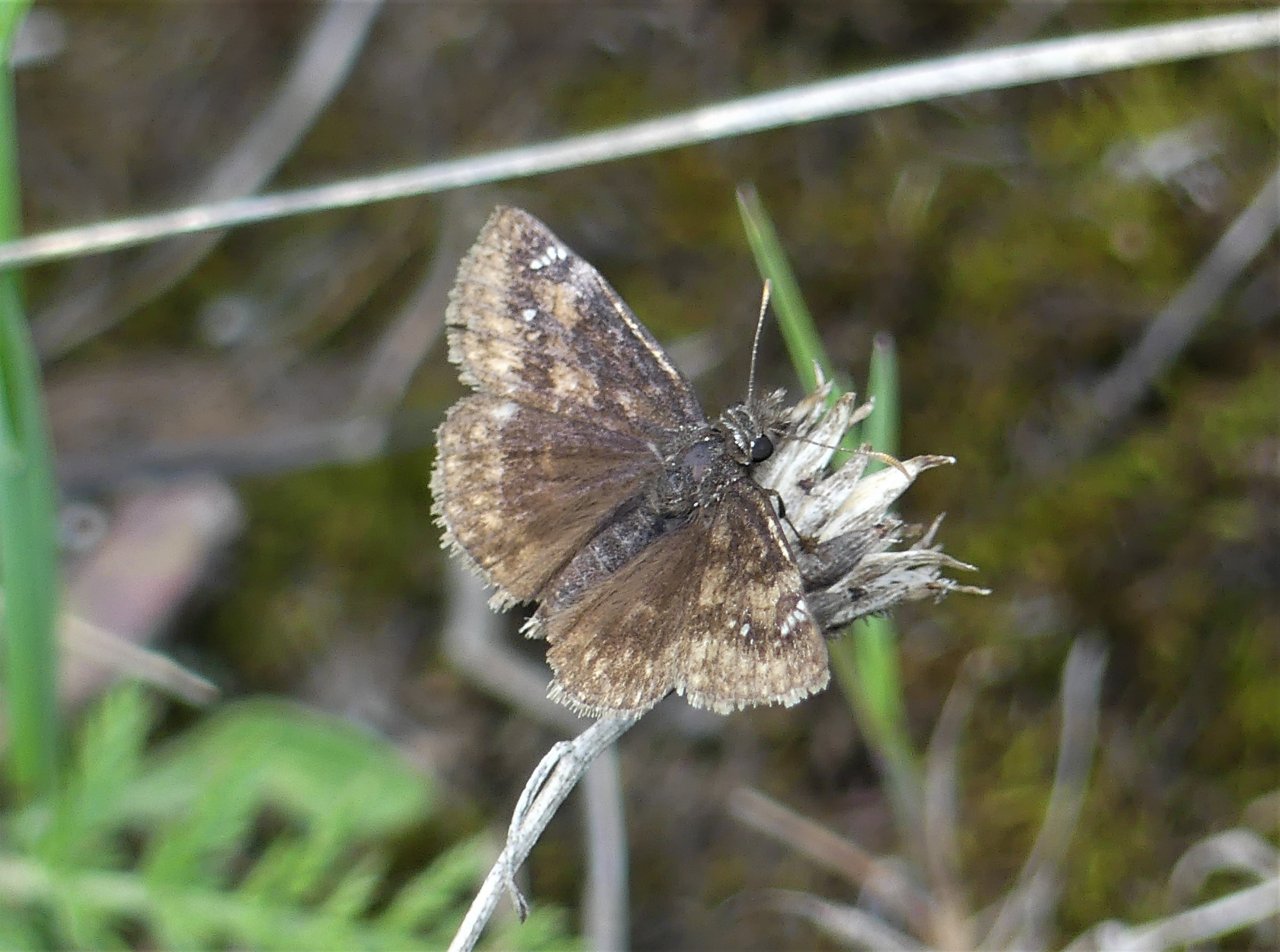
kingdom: Animalia
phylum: Arthropoda
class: Insecta
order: Lepidoptera
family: Hesperiidae
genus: Gesta
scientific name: Gesta
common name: Columbine Duskywing
